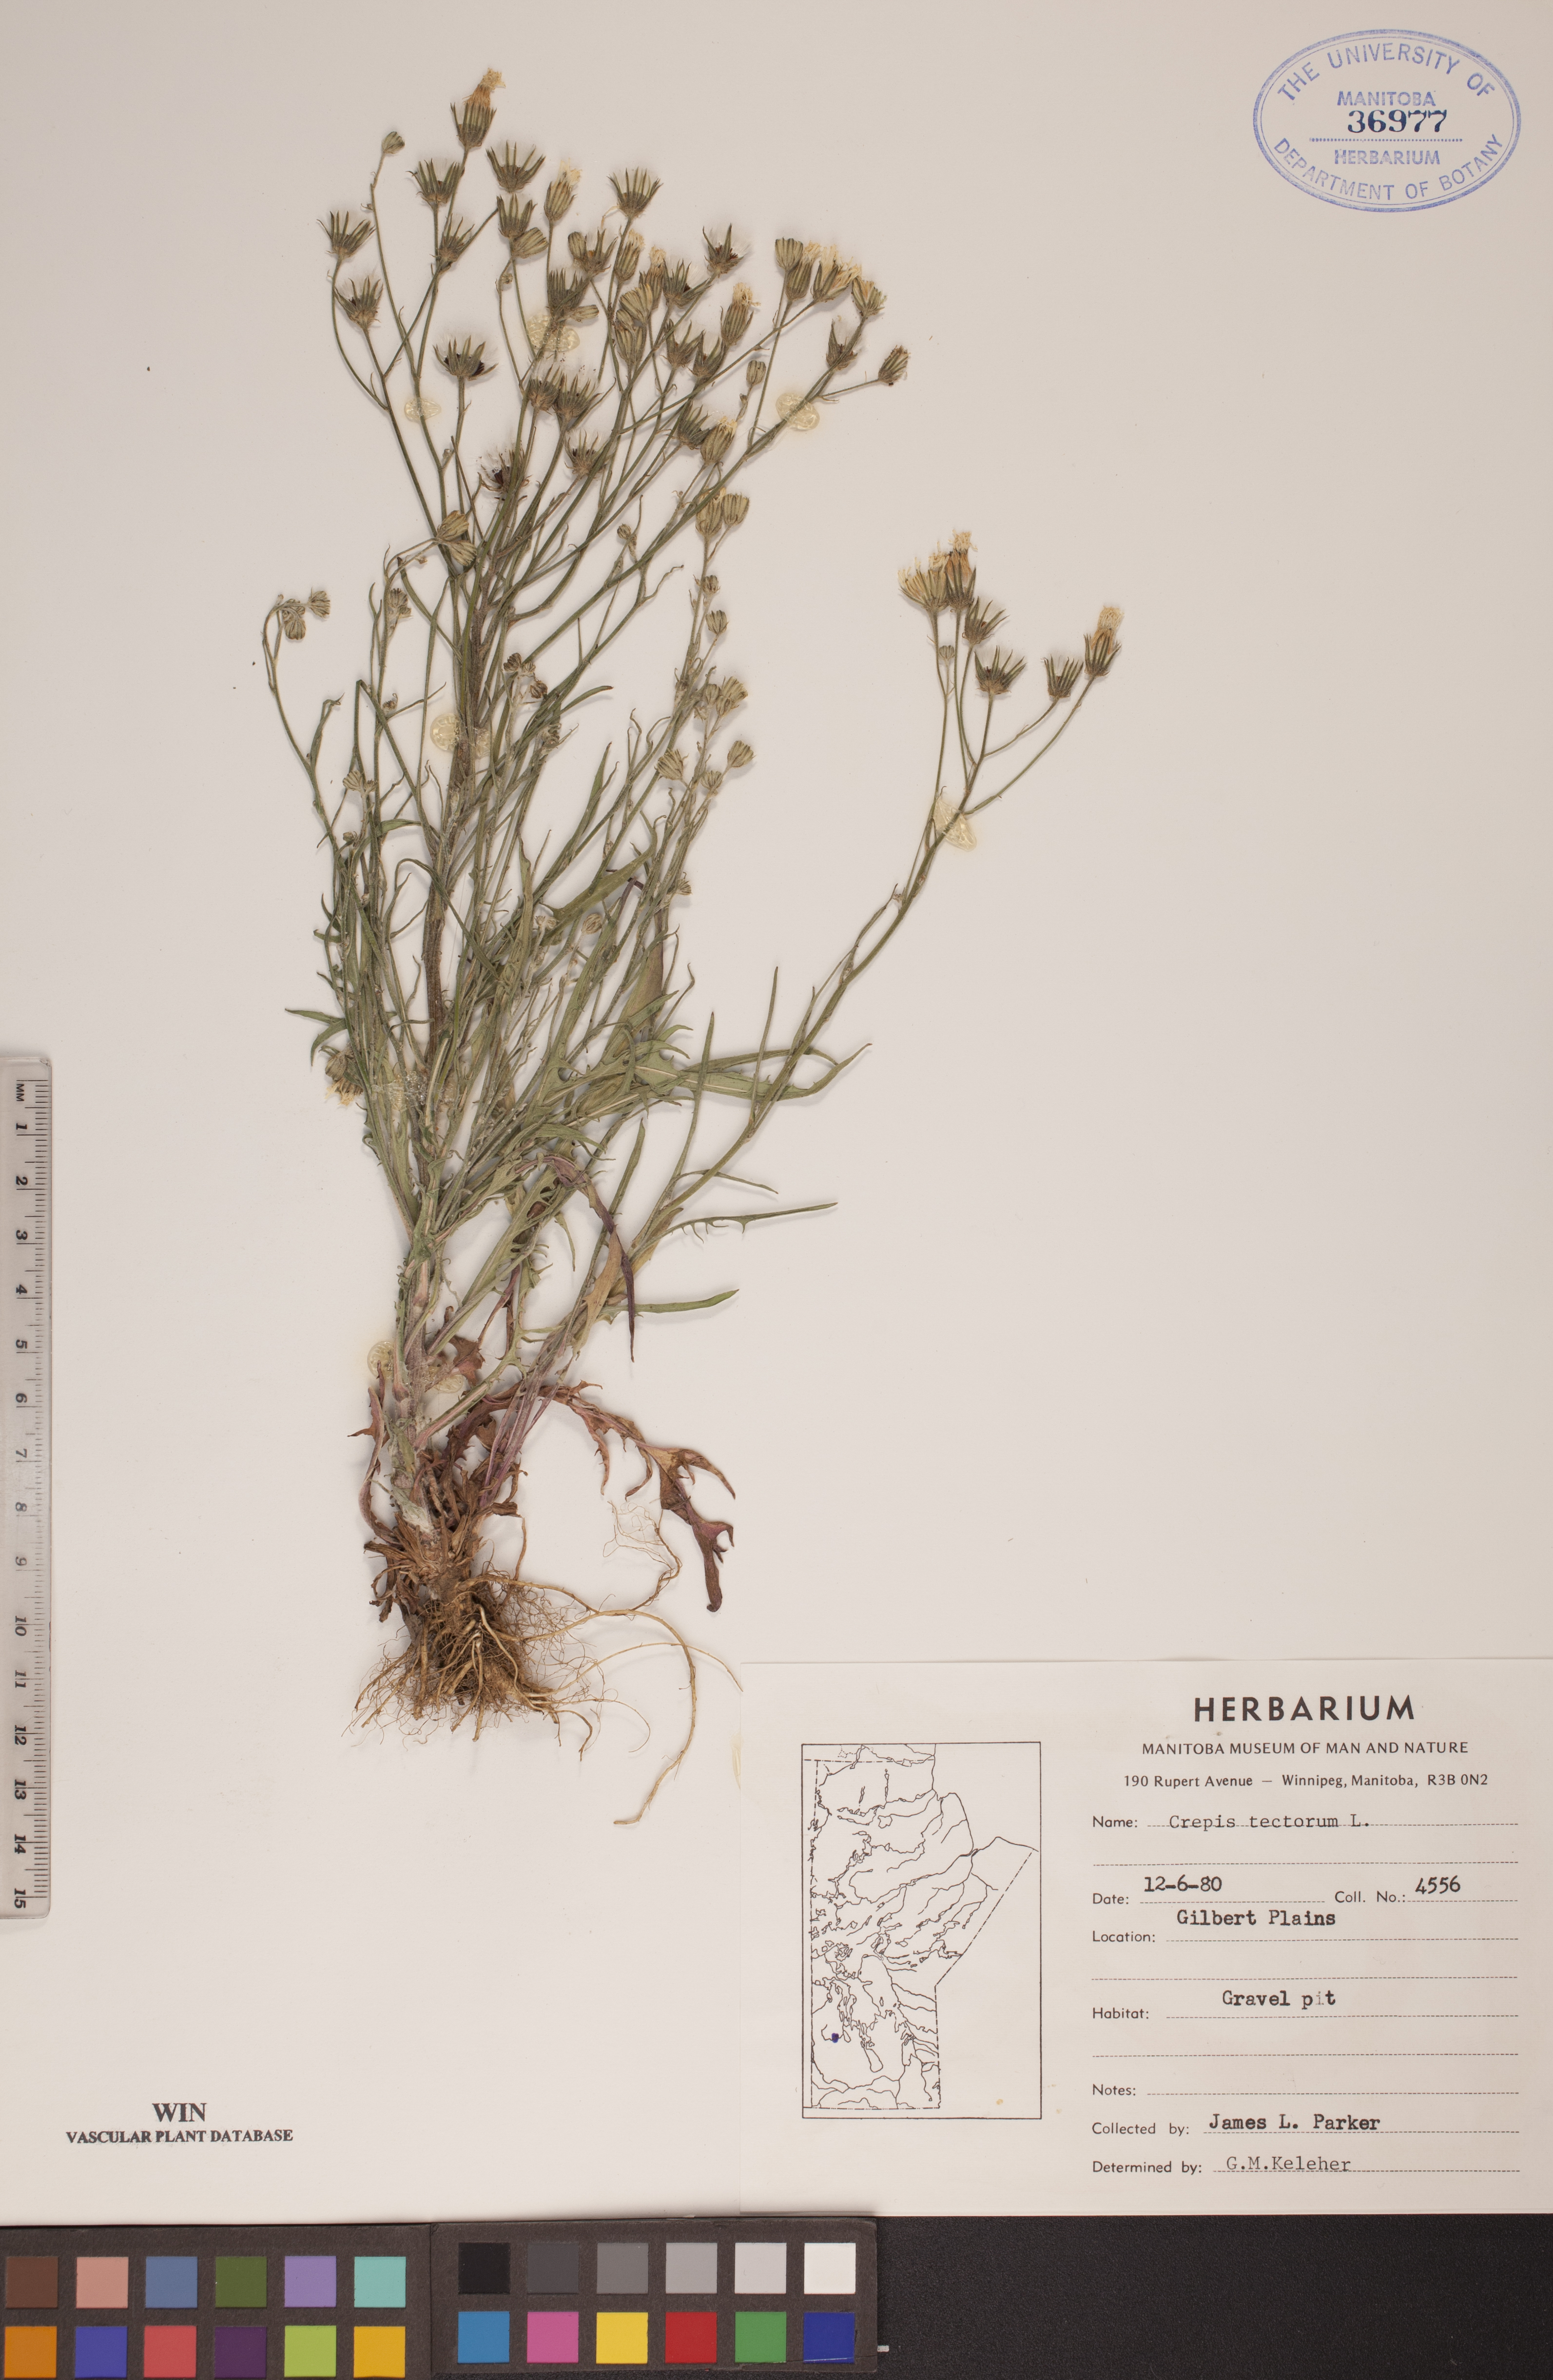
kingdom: Plantae
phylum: Tracheophyta
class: Magnoliopsida
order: Asterales
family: Asteraceae
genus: Crepis
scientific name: Crepis tectorum
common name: Narrow-leaved hawk's-beard
